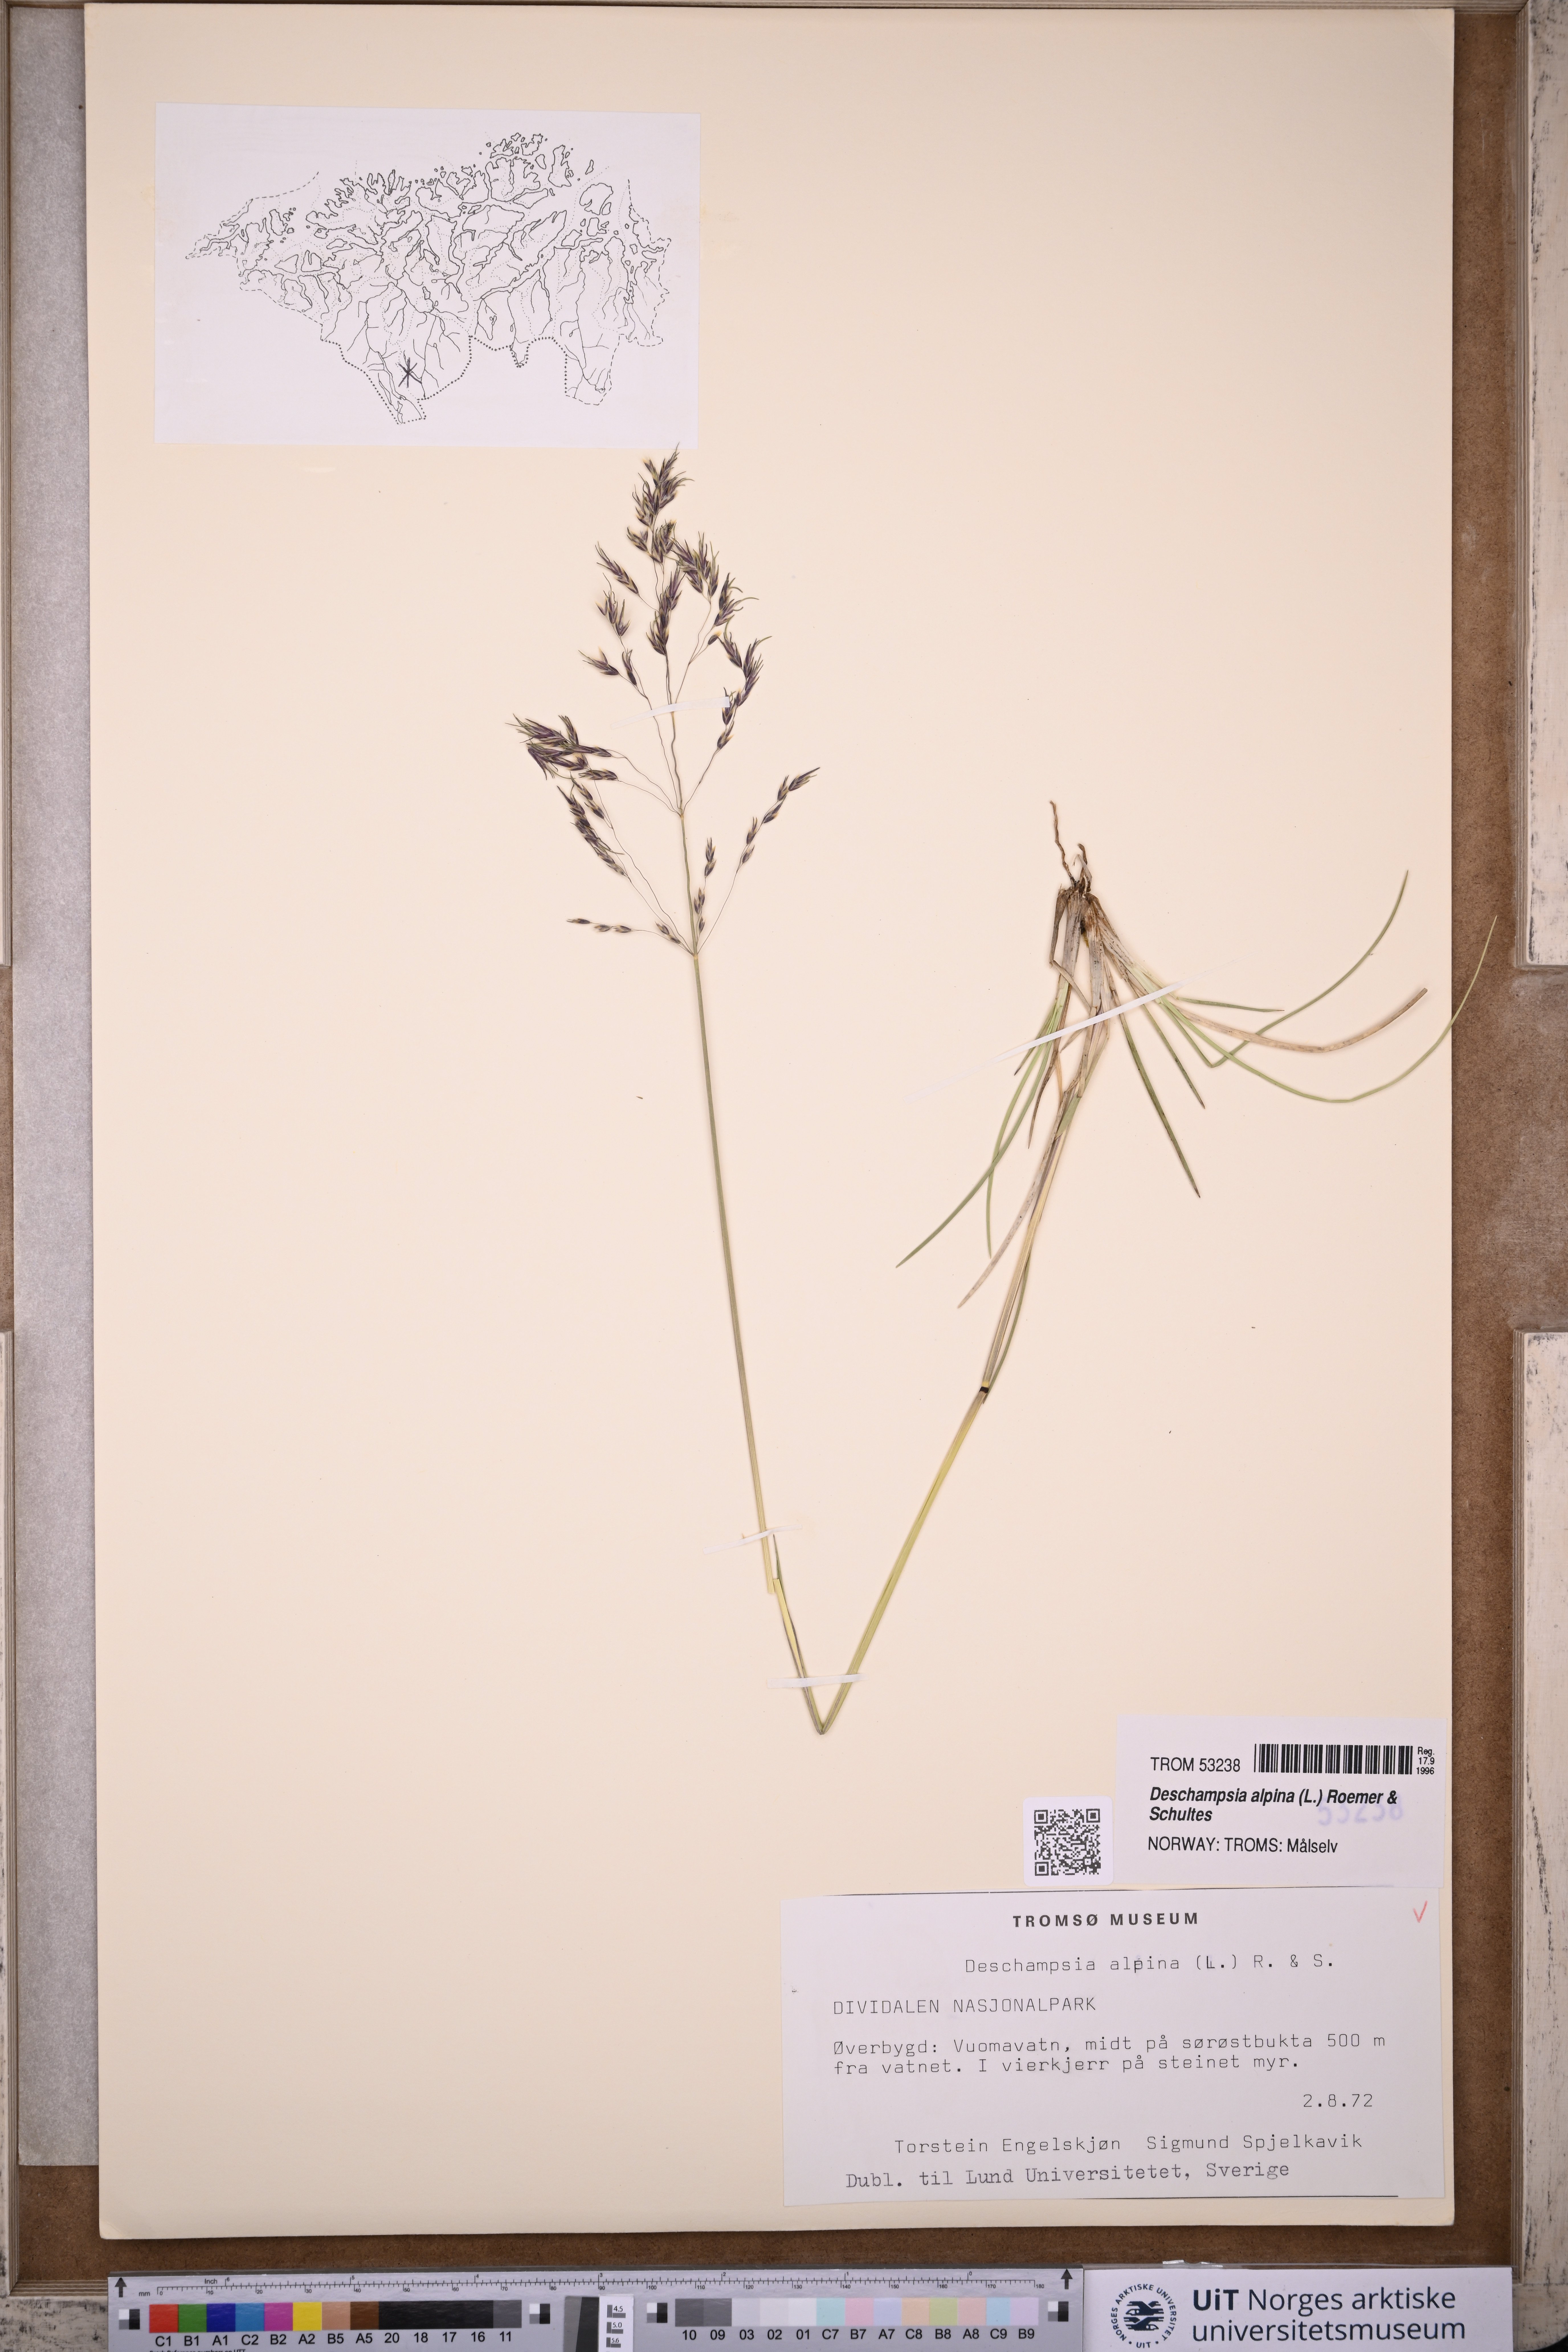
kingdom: Plantae
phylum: Tracheophyta
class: Liliopsida
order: Poales
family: Poaceae
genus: Deschampsia
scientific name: Deschampsia cespitosa
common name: Tufted hair-grass
